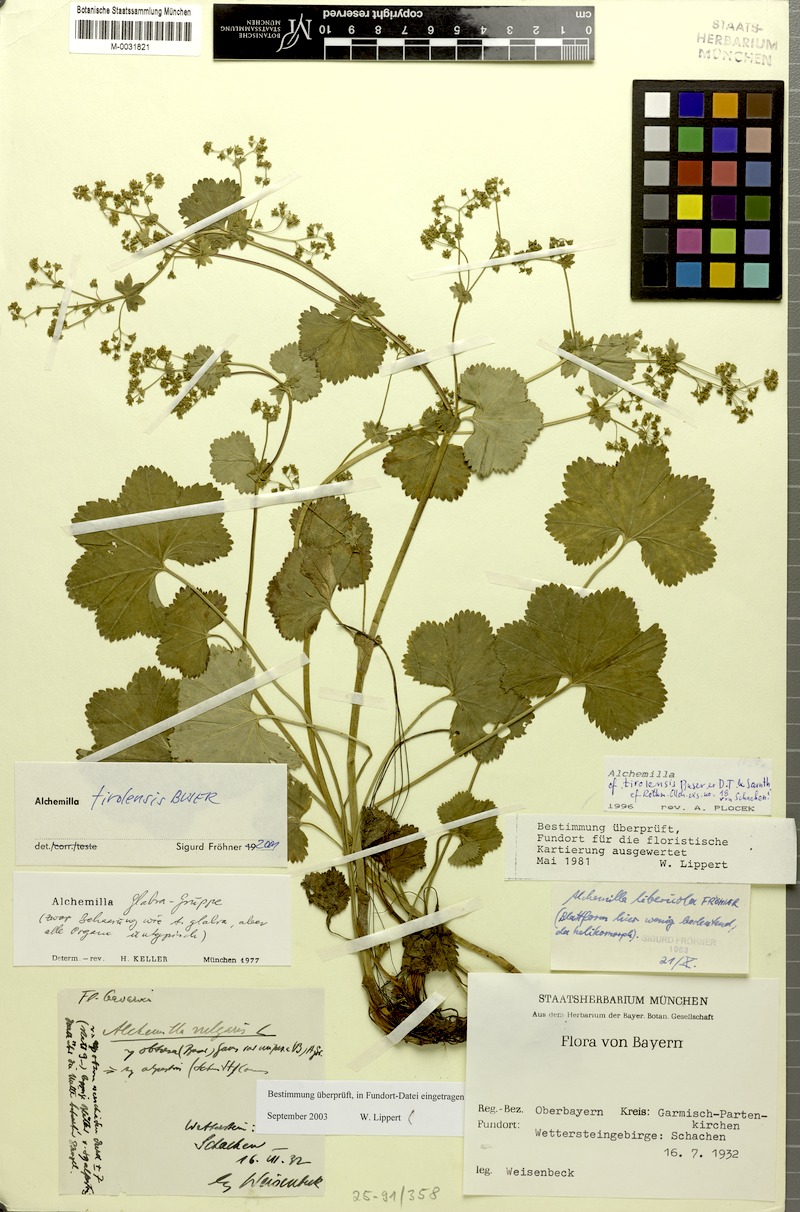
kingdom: Plantae
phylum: Tracheophyta
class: Magnoliopsida
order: Rosales
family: Rosaceae
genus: Alchemilla
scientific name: Alchemilla tirolensis
